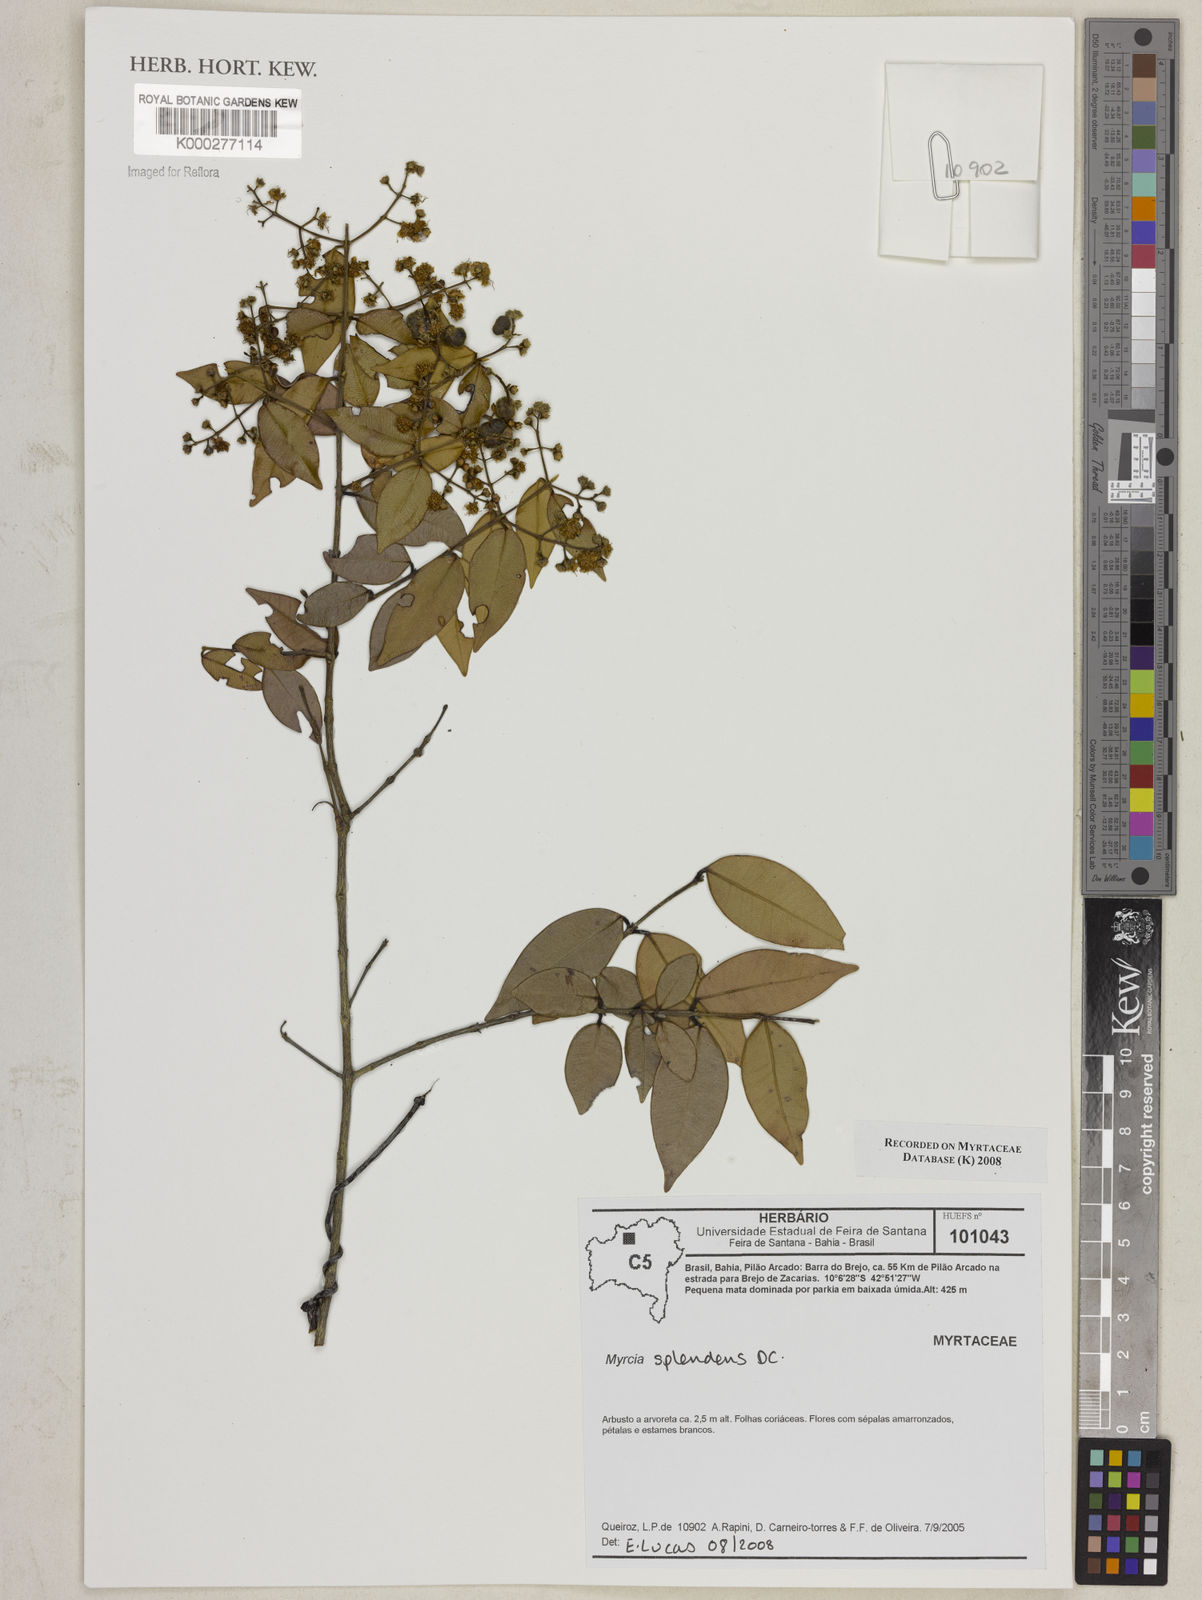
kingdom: Plantae
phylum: Tracheophyta
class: Magnoliopsida
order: Myrtales
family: Myrtaceae
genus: Myrcia
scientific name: Myrcia splendens
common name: Surinam cherry
